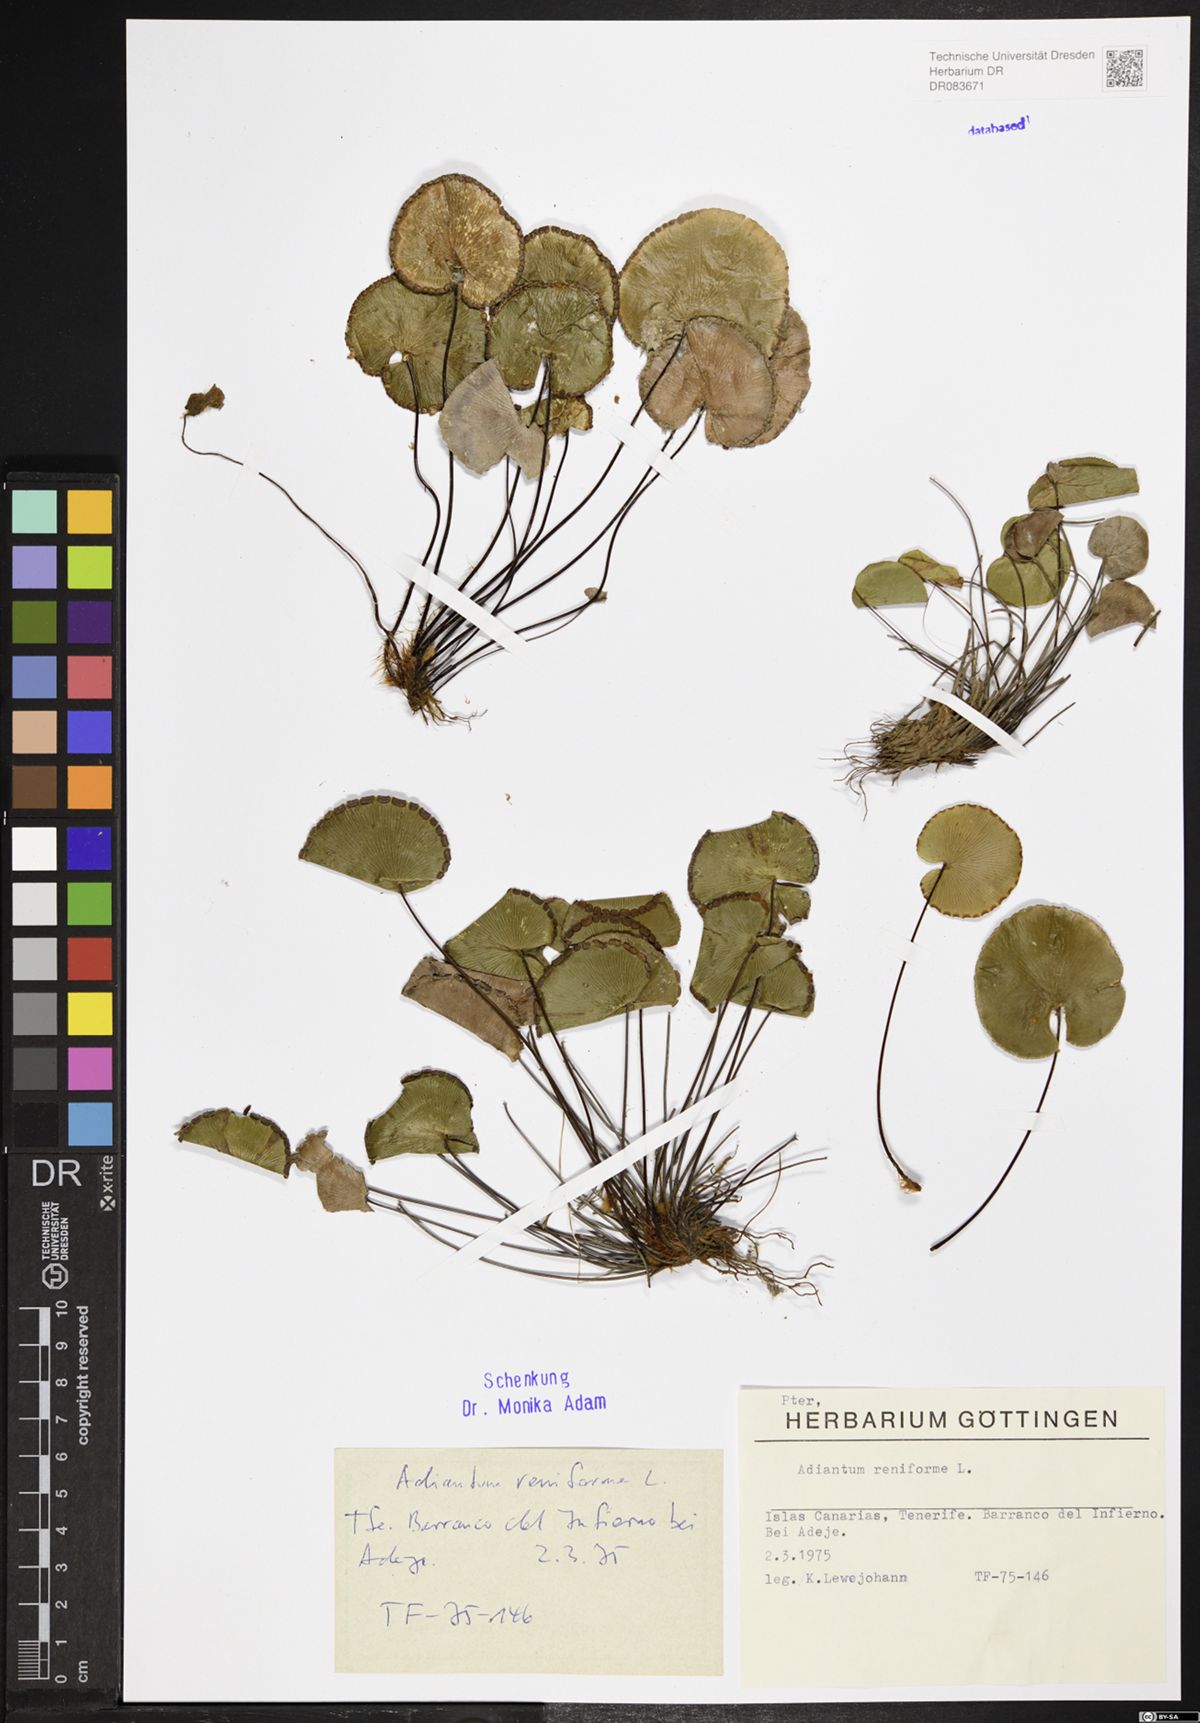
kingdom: Plantae
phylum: Tracheophyta
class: Polypodiopsida
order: Polypodiales
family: Pteridaceae
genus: Adiantum
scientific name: Adiantum reniforme
